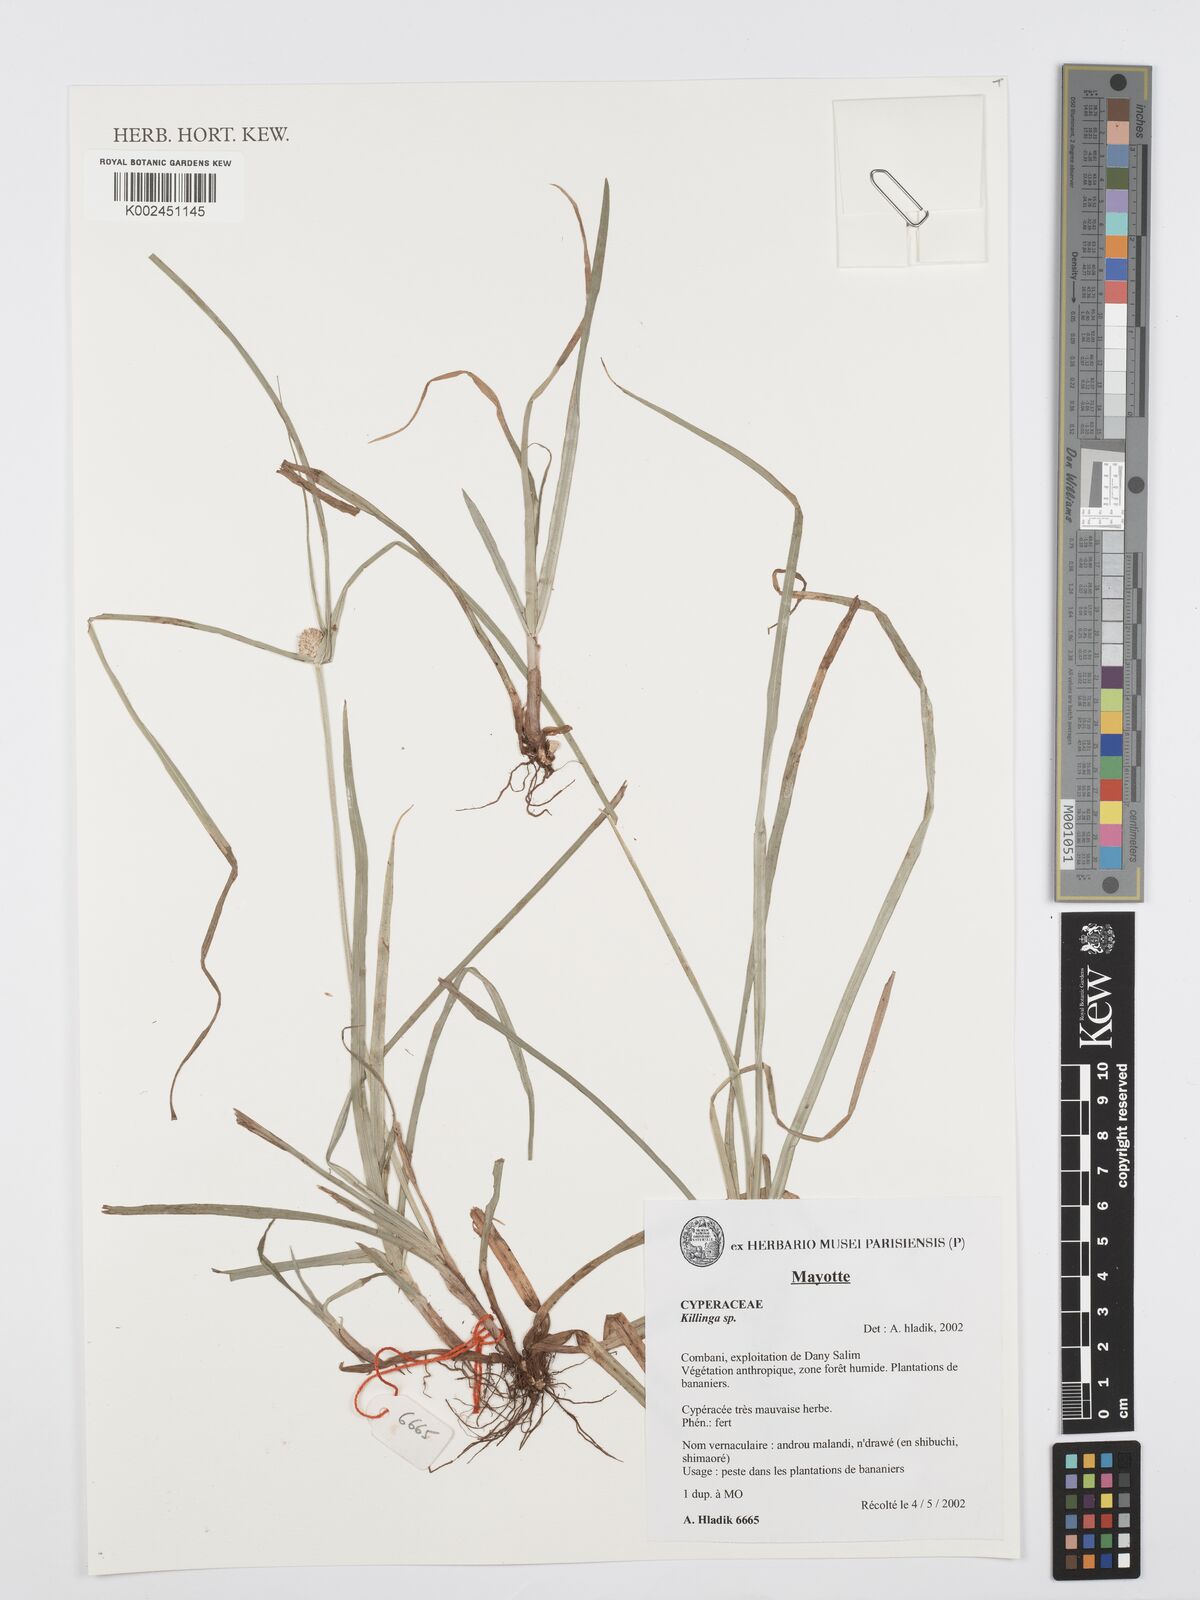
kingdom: Plantae
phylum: Tracheophyta
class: Liliopsida
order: Poales
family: Cyperaceae
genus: Cyperus
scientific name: Cyperus
